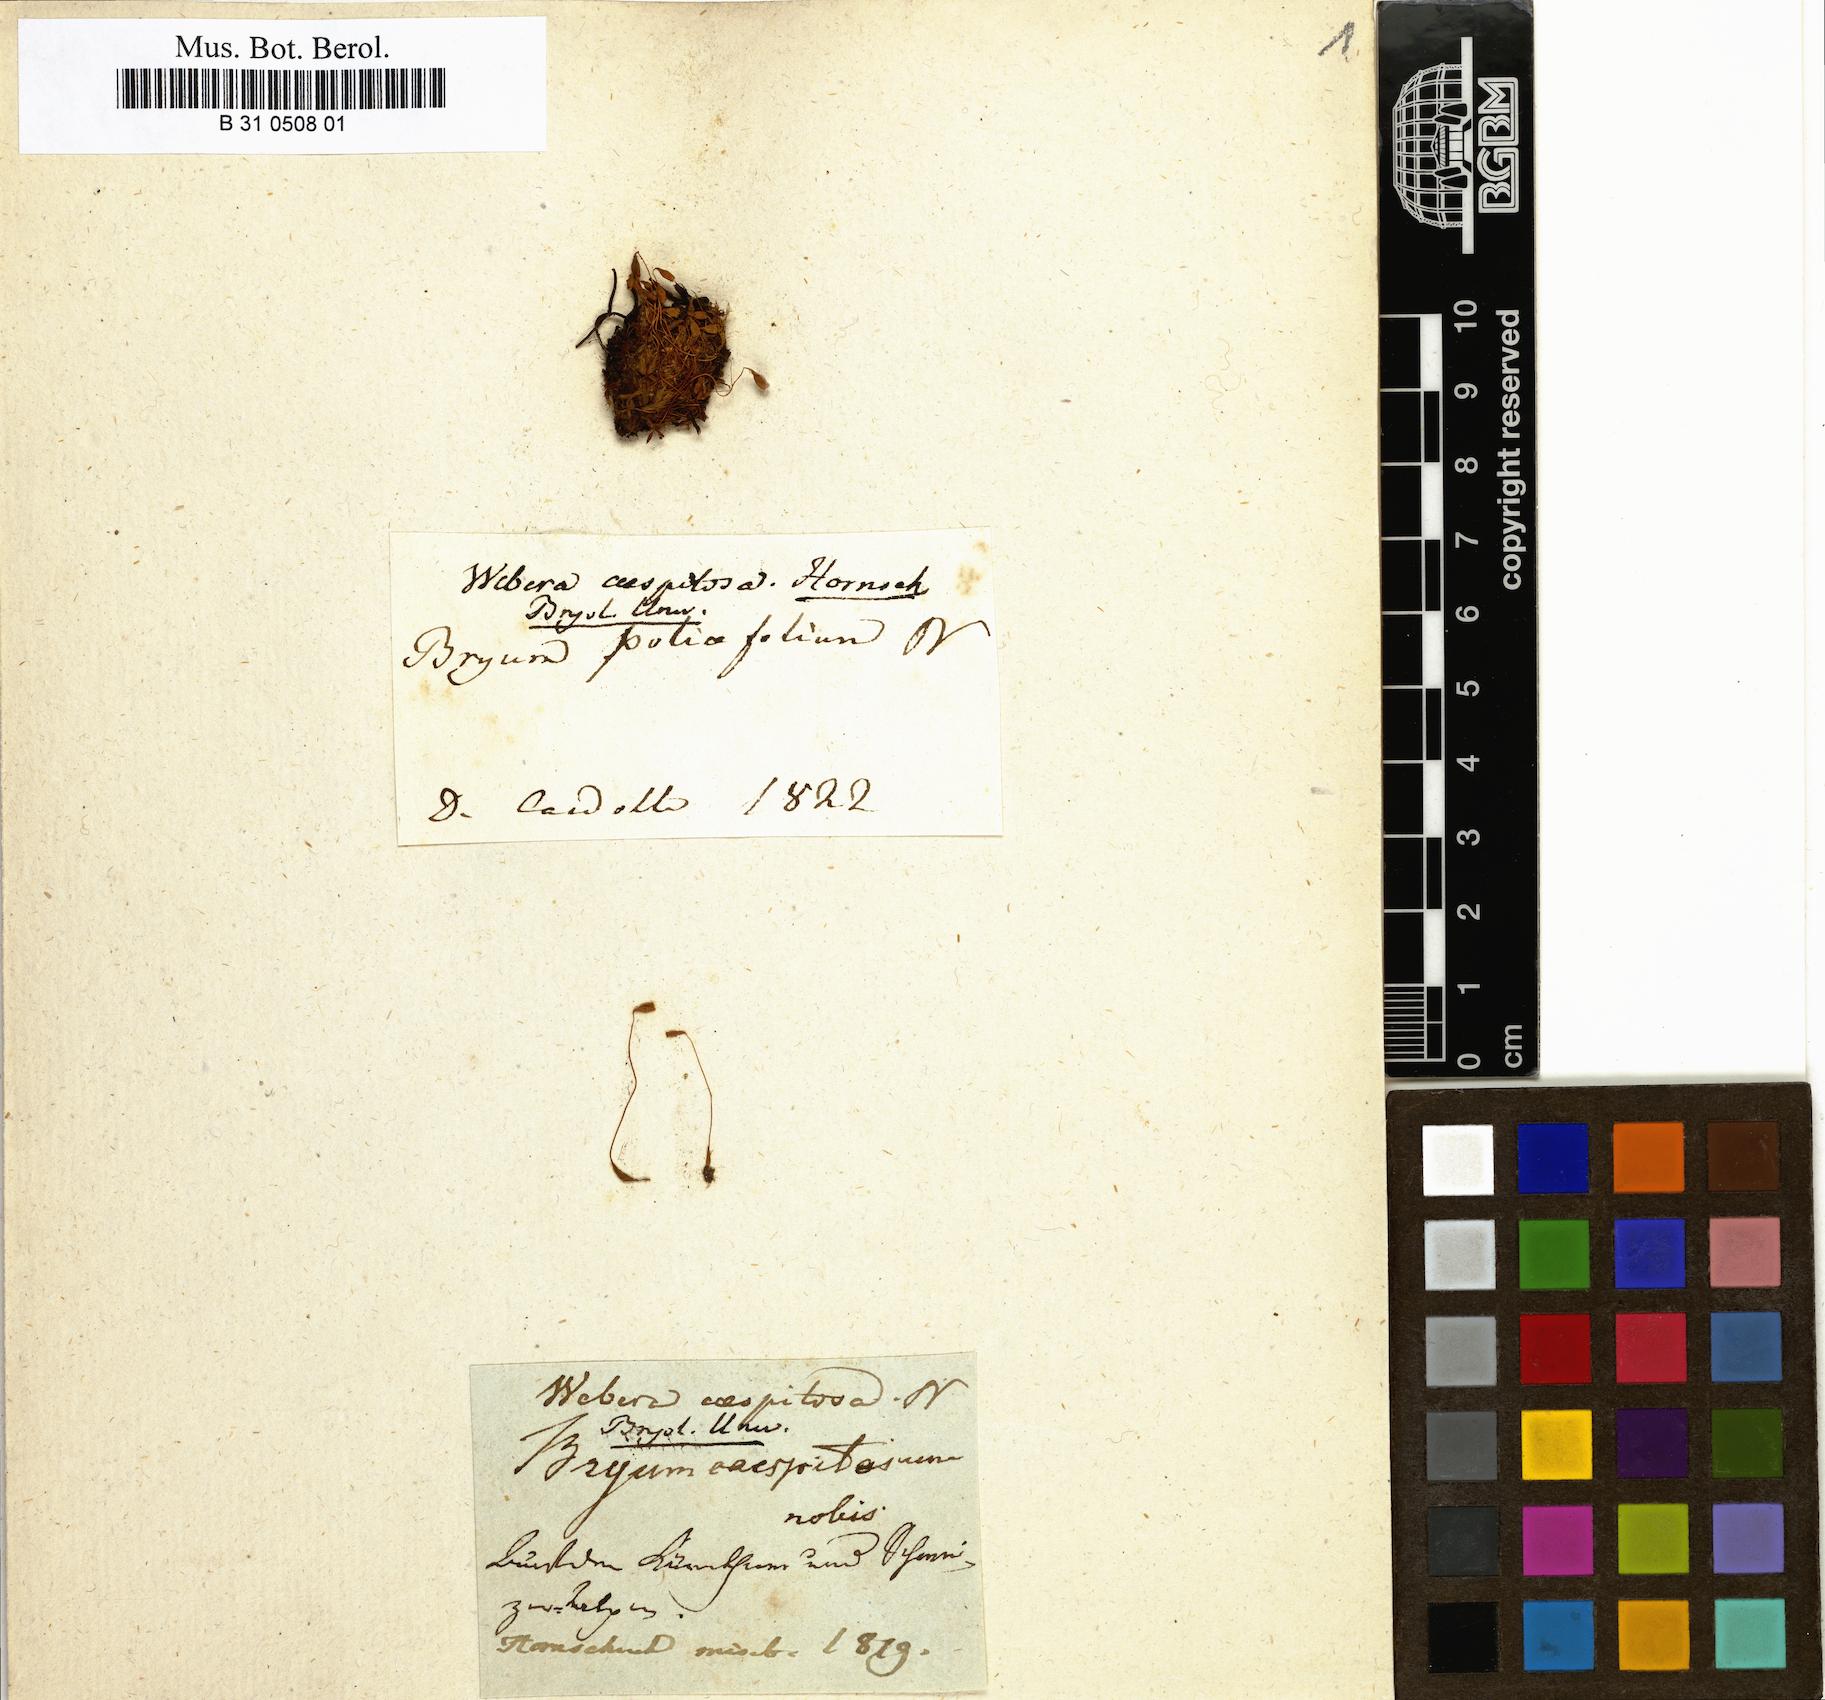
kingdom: Plantae
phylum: Bryophyta
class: Bryopsida
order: Bryales
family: Mniaceae
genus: Pohlia
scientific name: Pohlia nutans
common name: Nodding thread-moss
